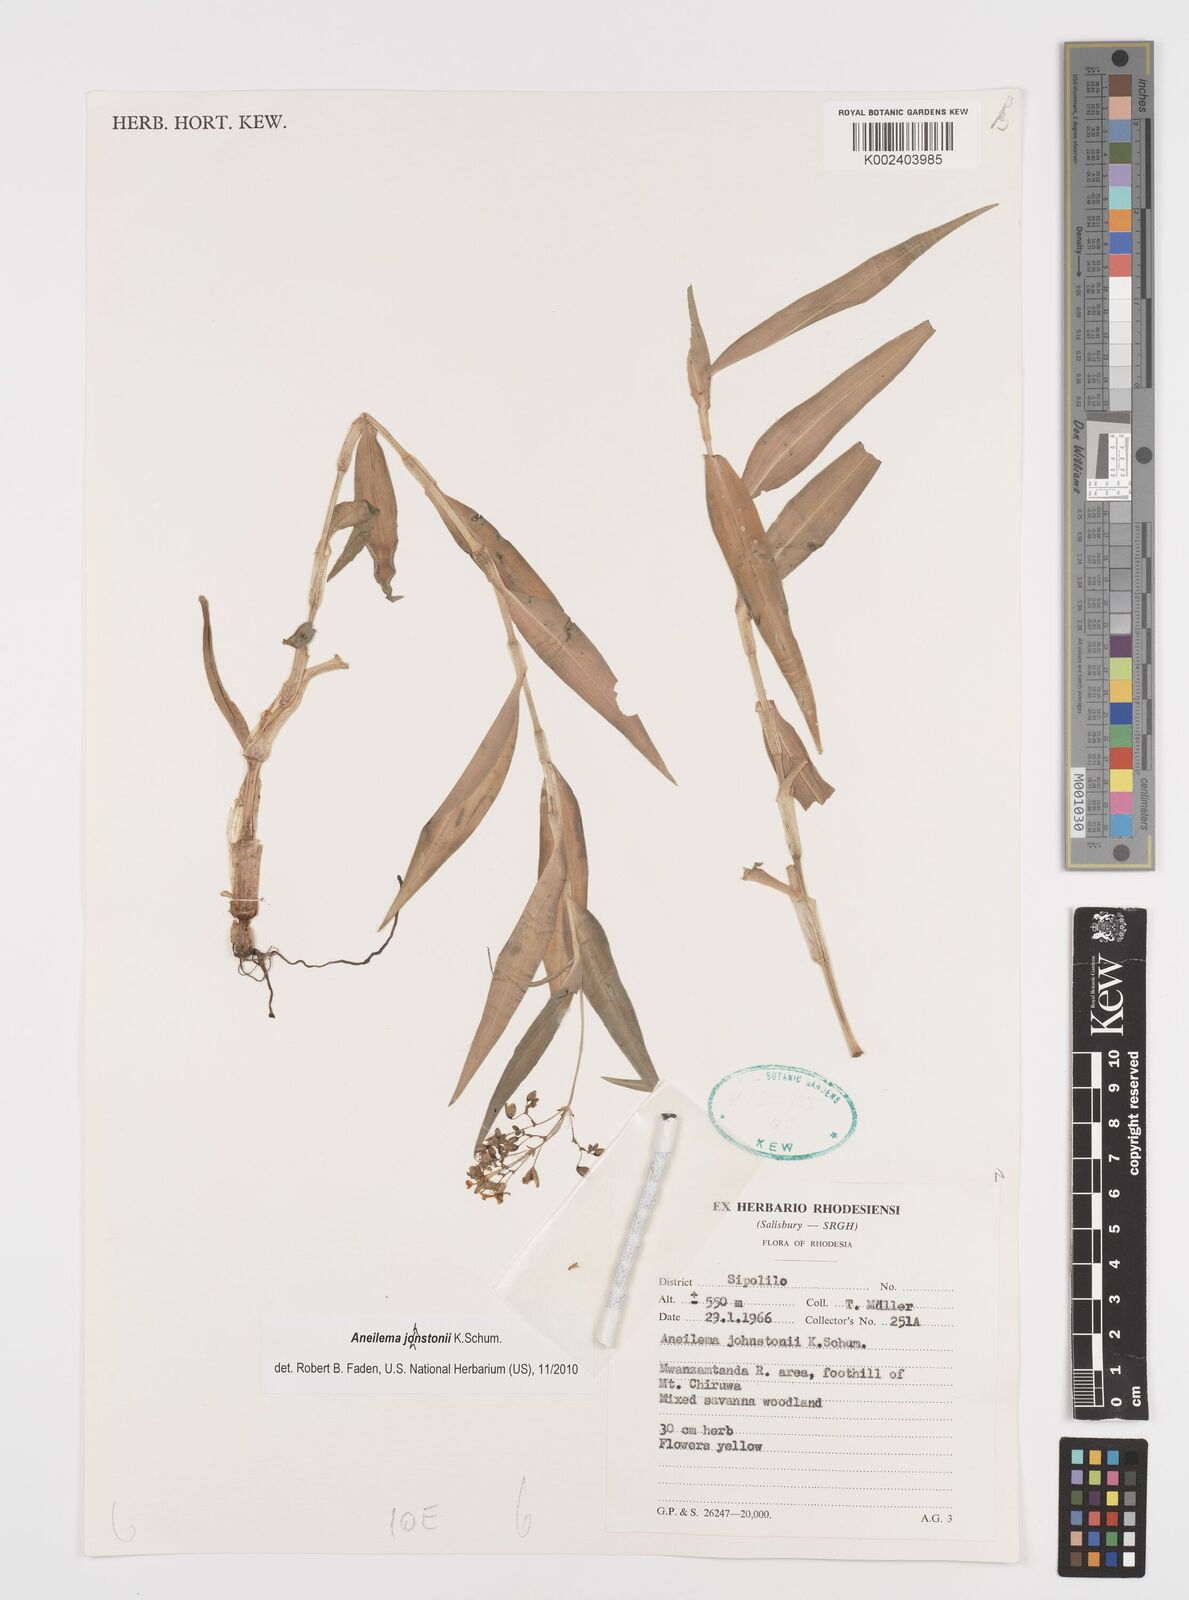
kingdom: Plantae
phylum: Tracheophyta
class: Liliopsida
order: Commelinales
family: Commelinaceae
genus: Aneilema
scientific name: Aneilema johnstonii
